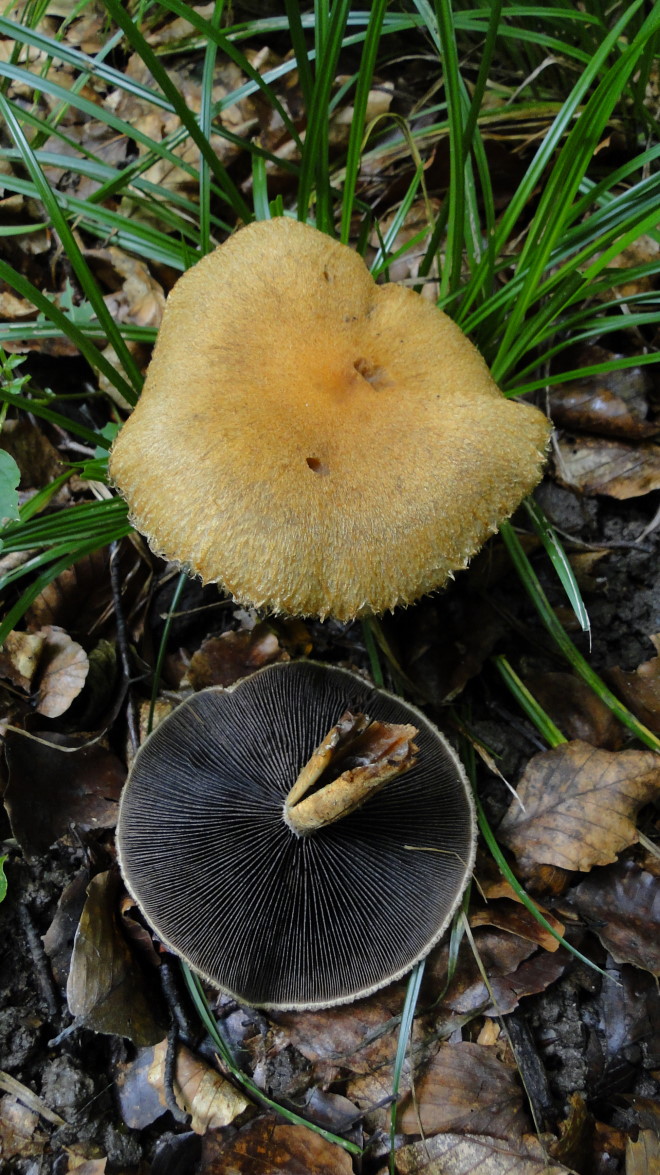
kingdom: Fungi
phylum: Basidiomycota
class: Agaricomycetes
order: Agaricales
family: Psathyrellaceae
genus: Lacrymaria
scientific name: Lacrymaria pyrotricha
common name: ildhåret mørkhat
